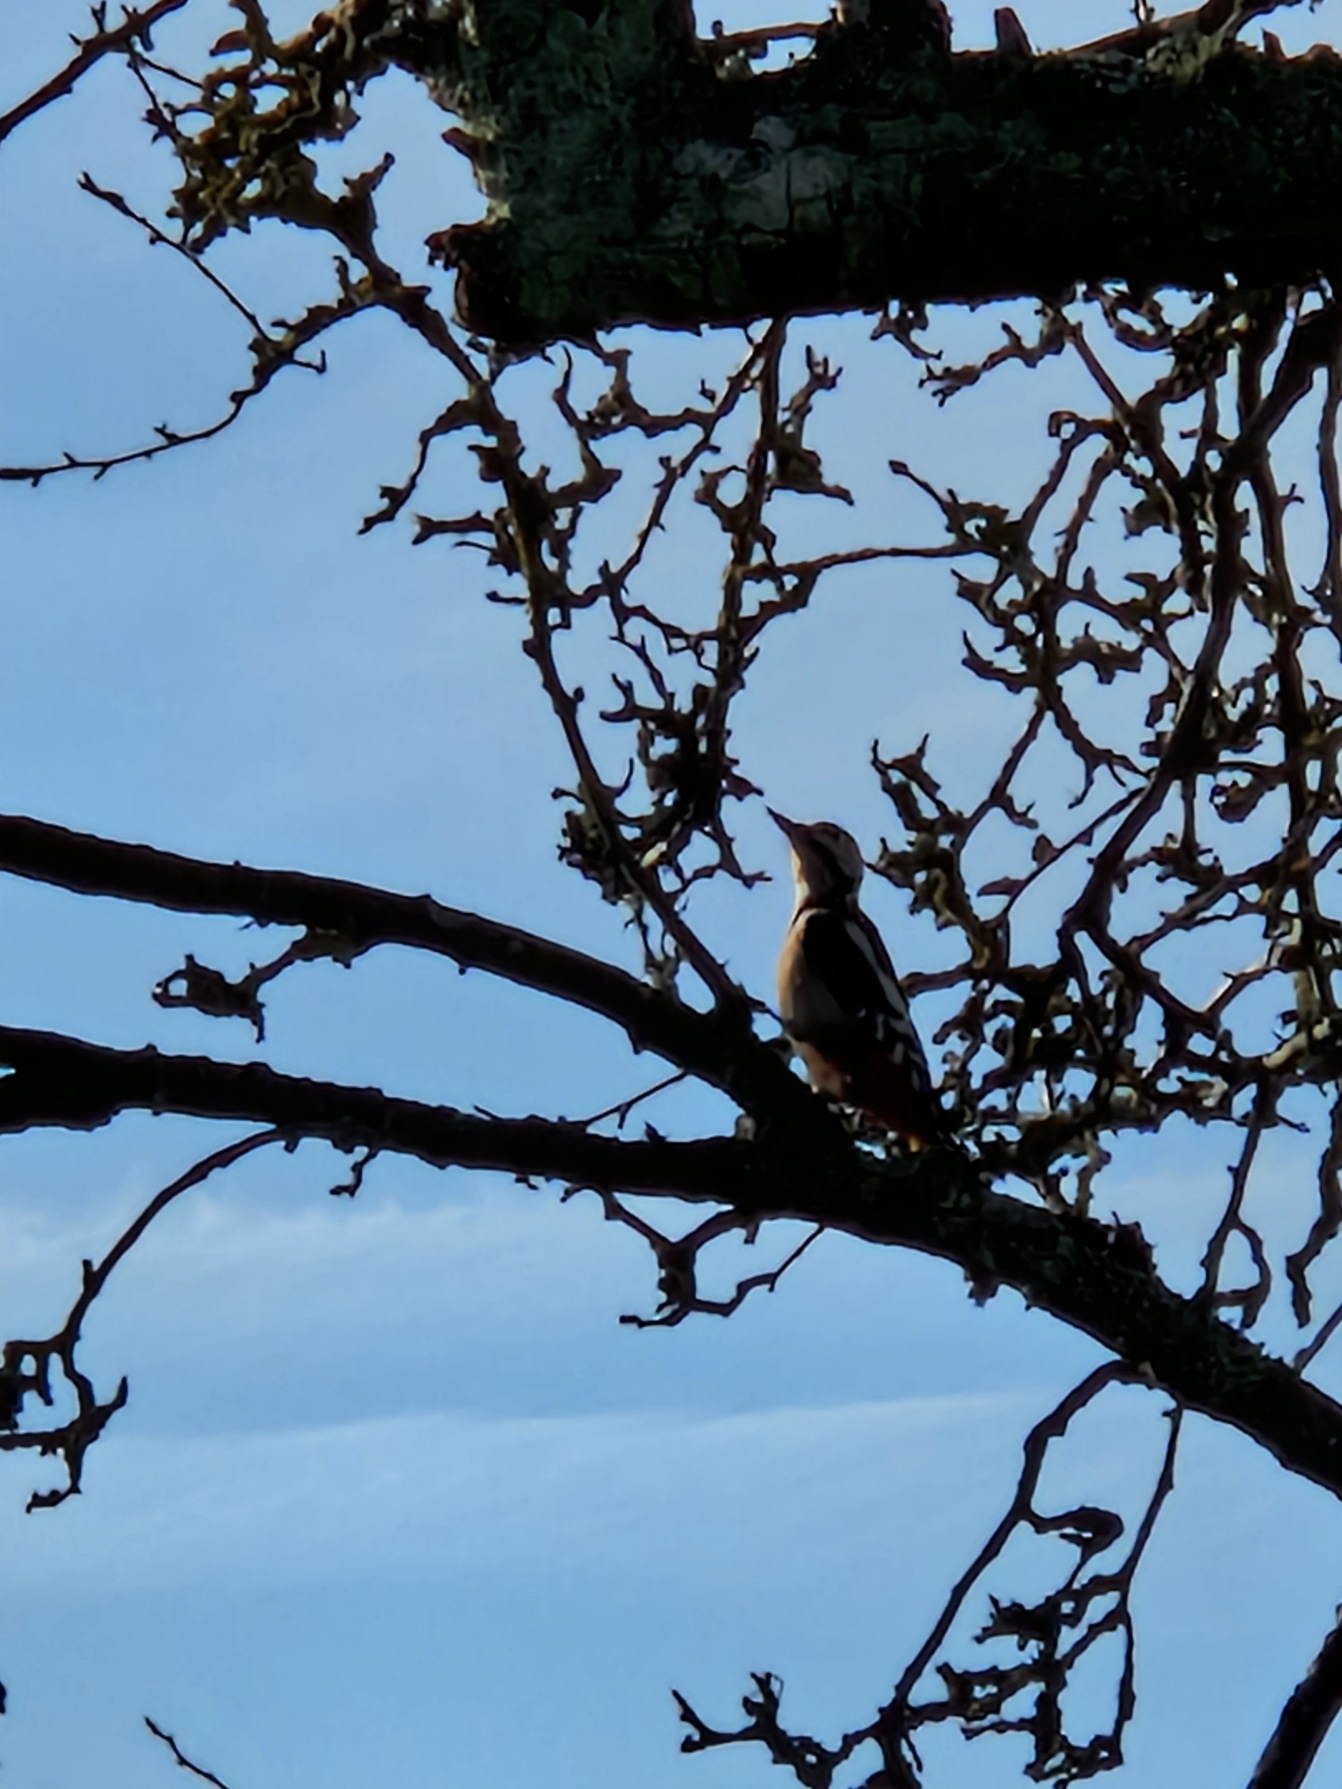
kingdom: Animalia
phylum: Chordata
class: Aves
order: Piciformes
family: Picidae
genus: Dendrocopos
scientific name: Dendrocopos major
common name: Stor flagspætte
